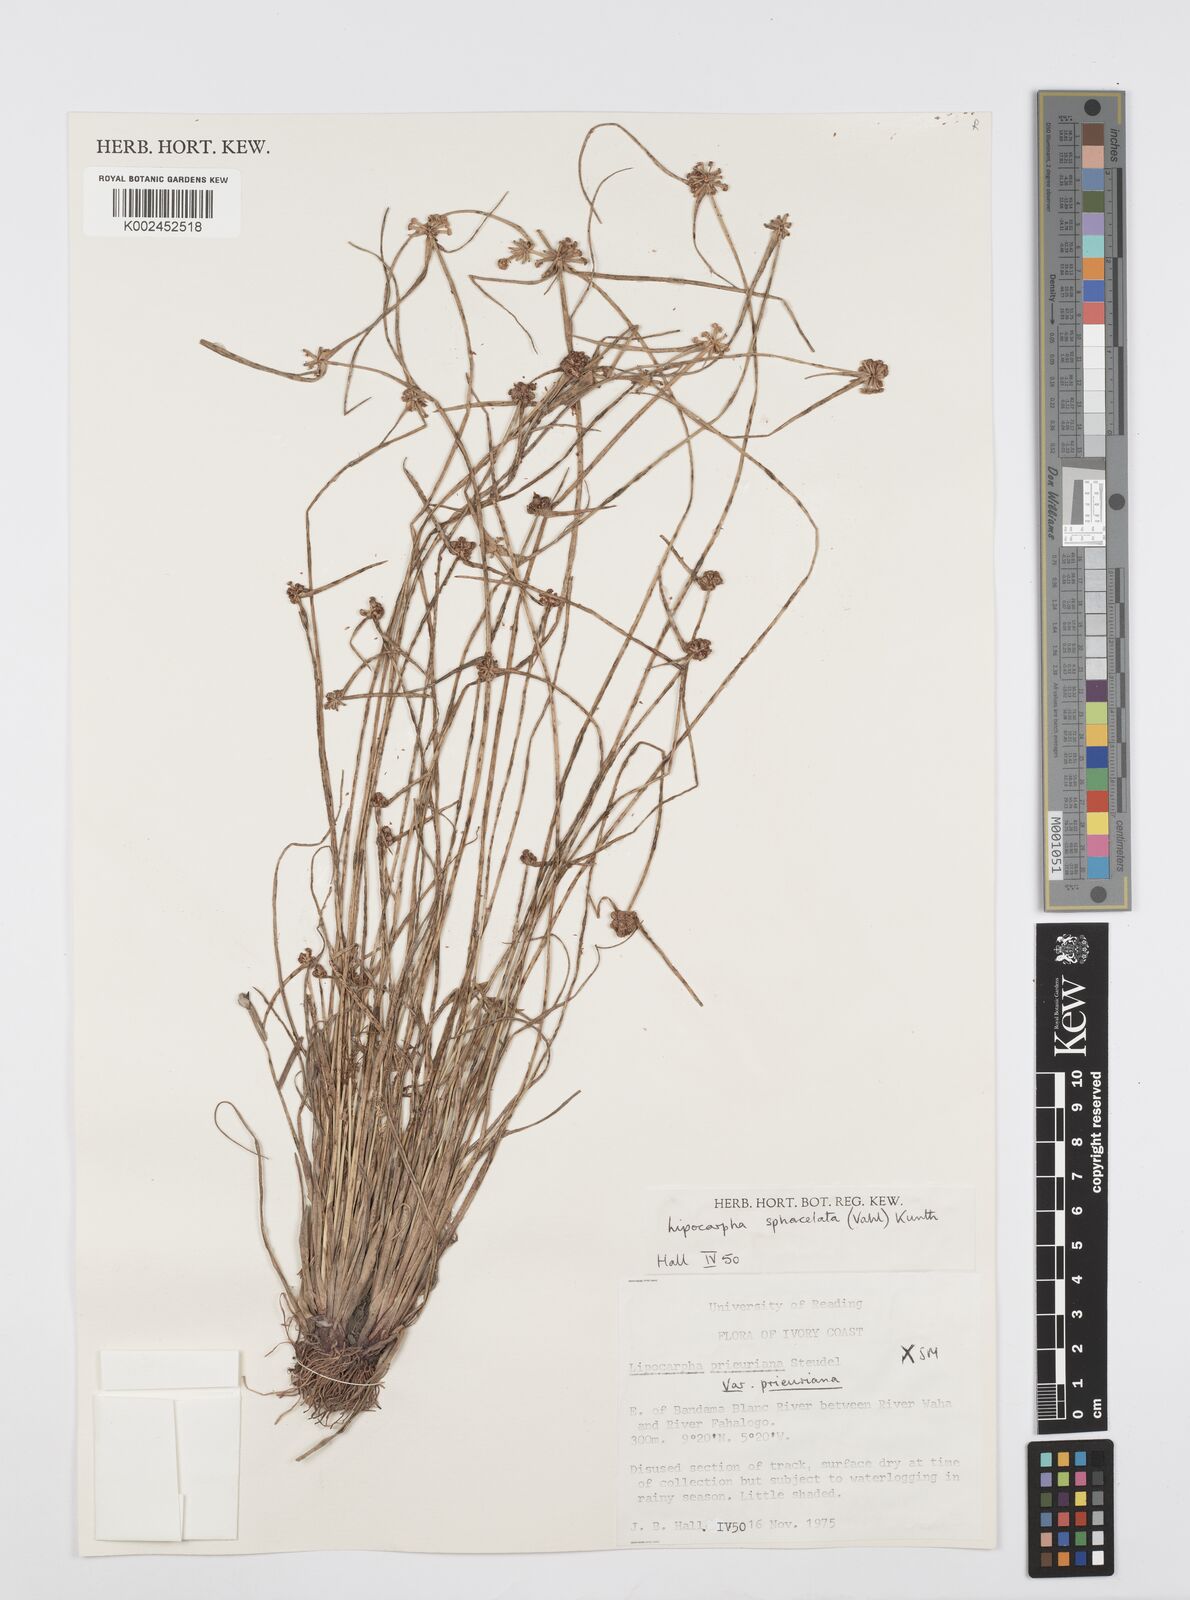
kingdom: Plantae
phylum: Tracheophyta
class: Liliopsida
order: Poales
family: Cyperaceae
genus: Cyperus
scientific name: Cyperus filiformis
